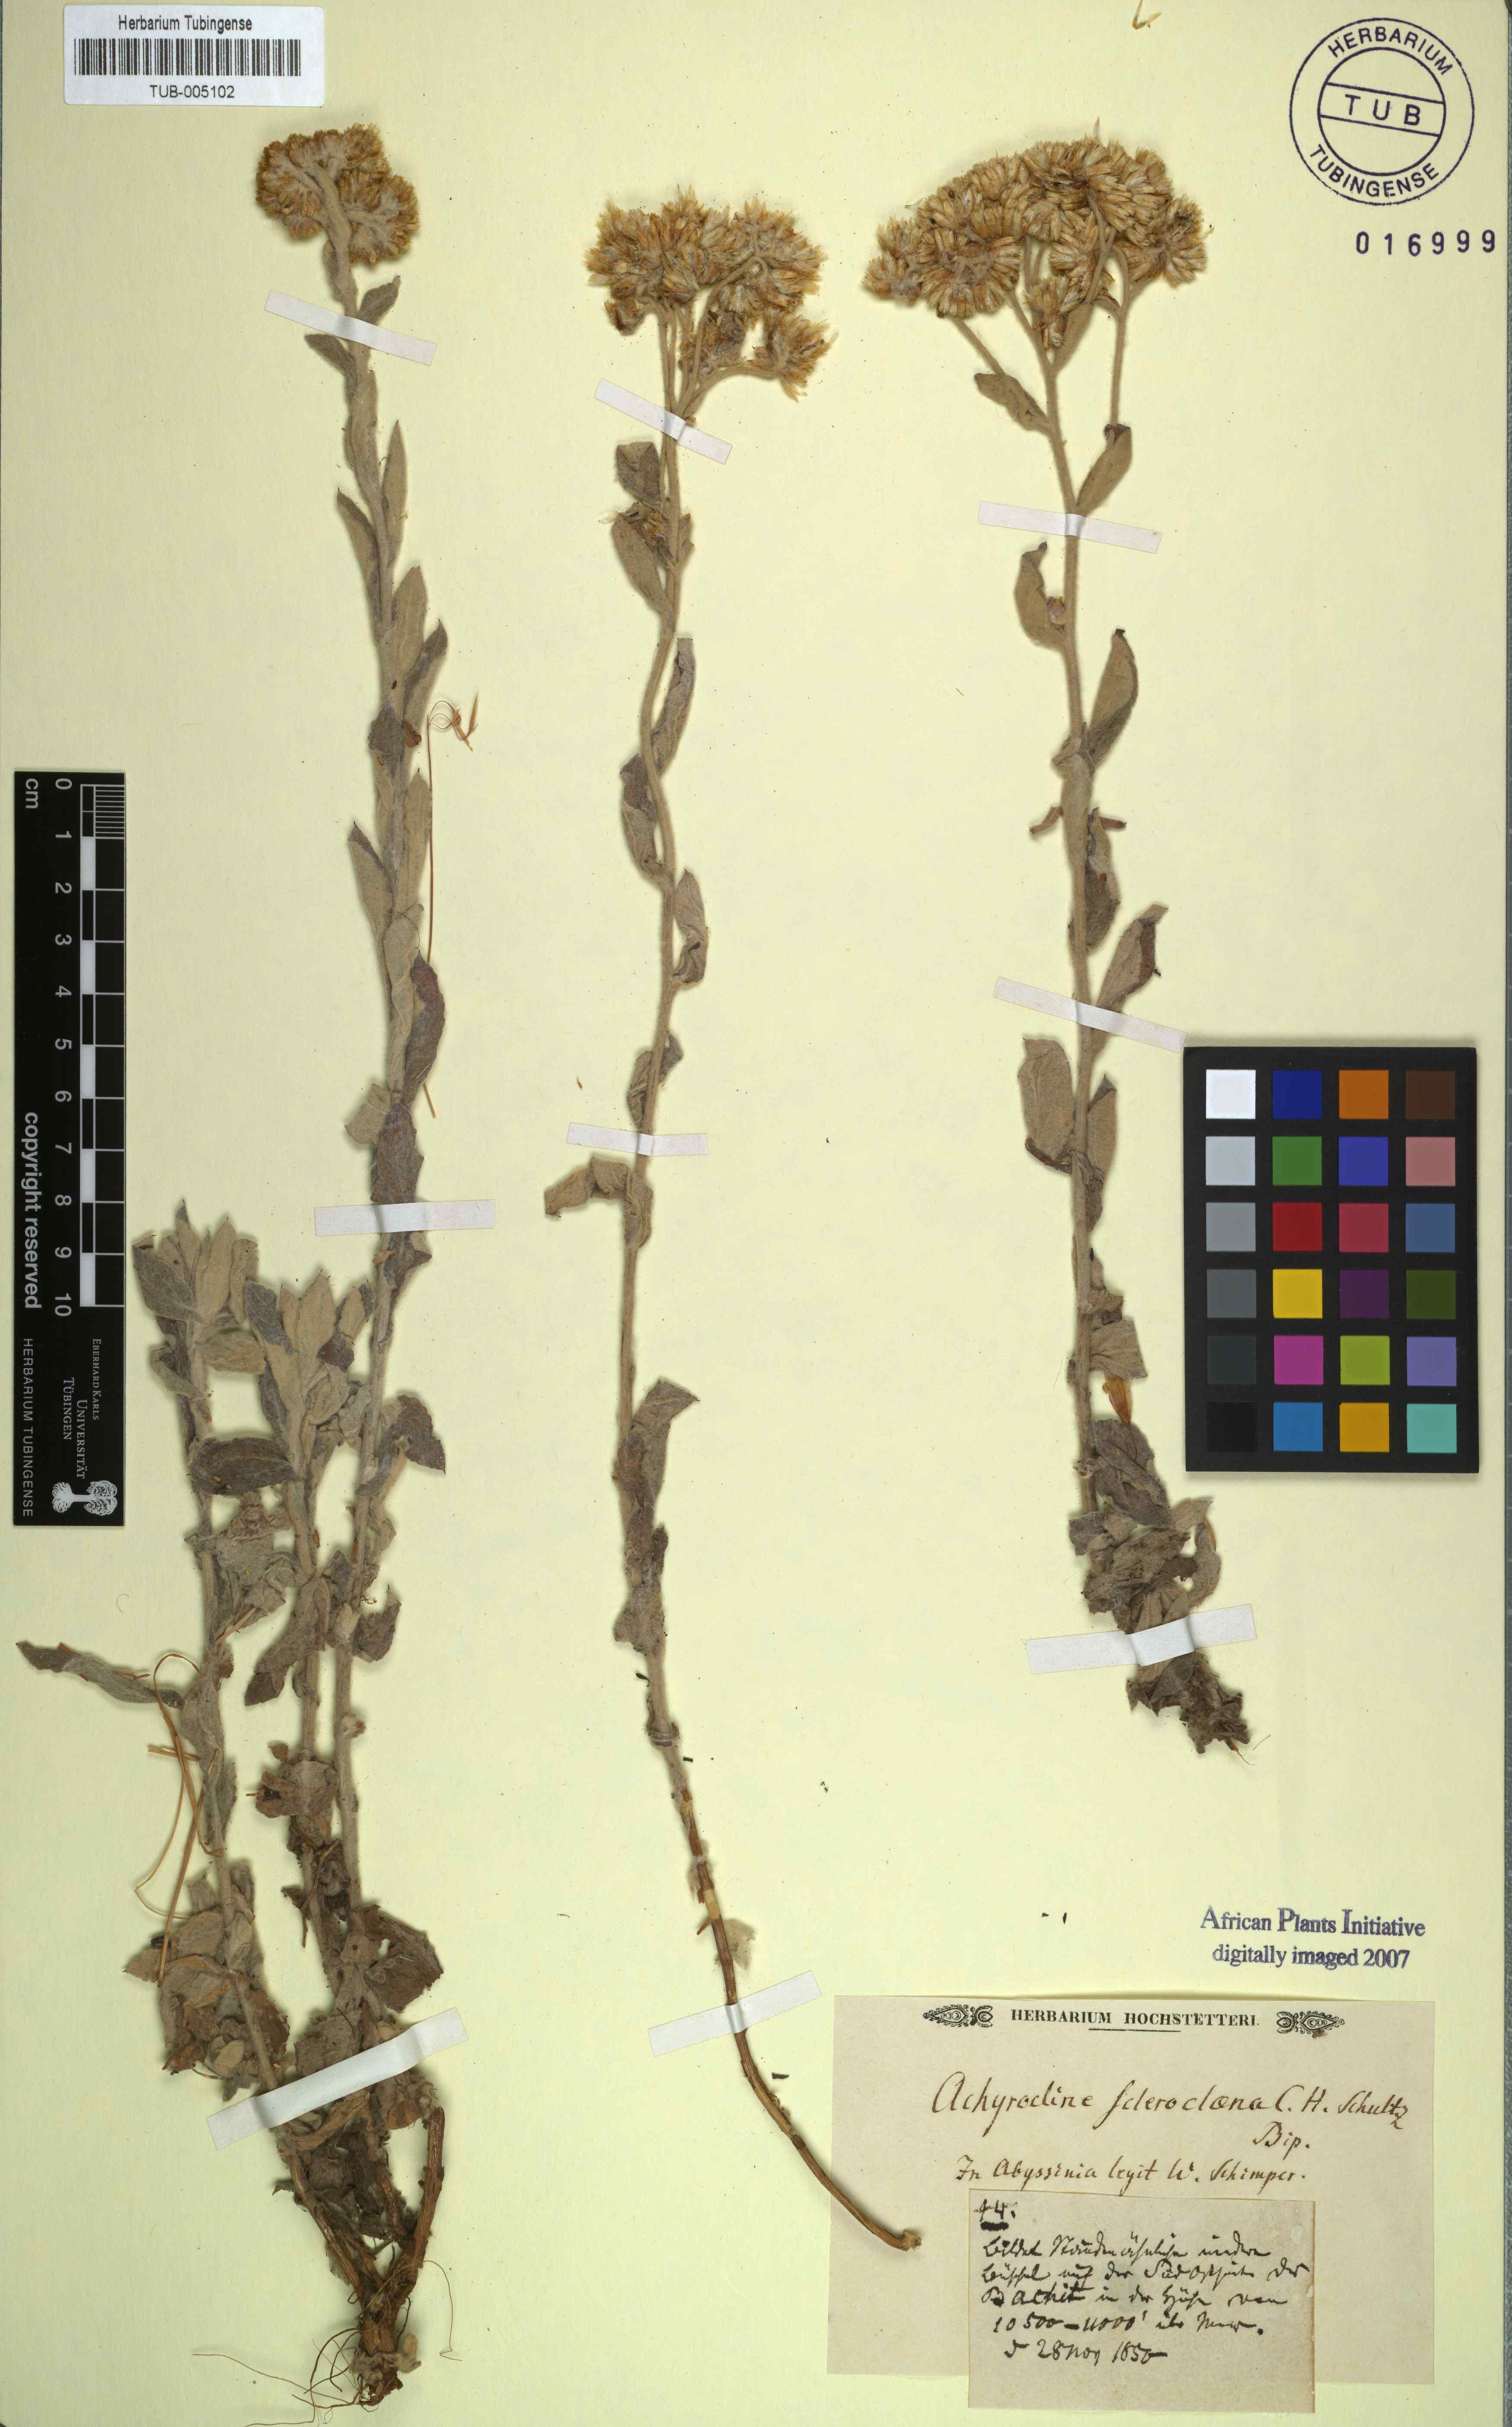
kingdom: Plantae
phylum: Tracheophyta
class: Magnoliopsida
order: Asterales
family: Asteraceae
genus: Helichrysum
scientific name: Helichrysum sclerochlaenum
